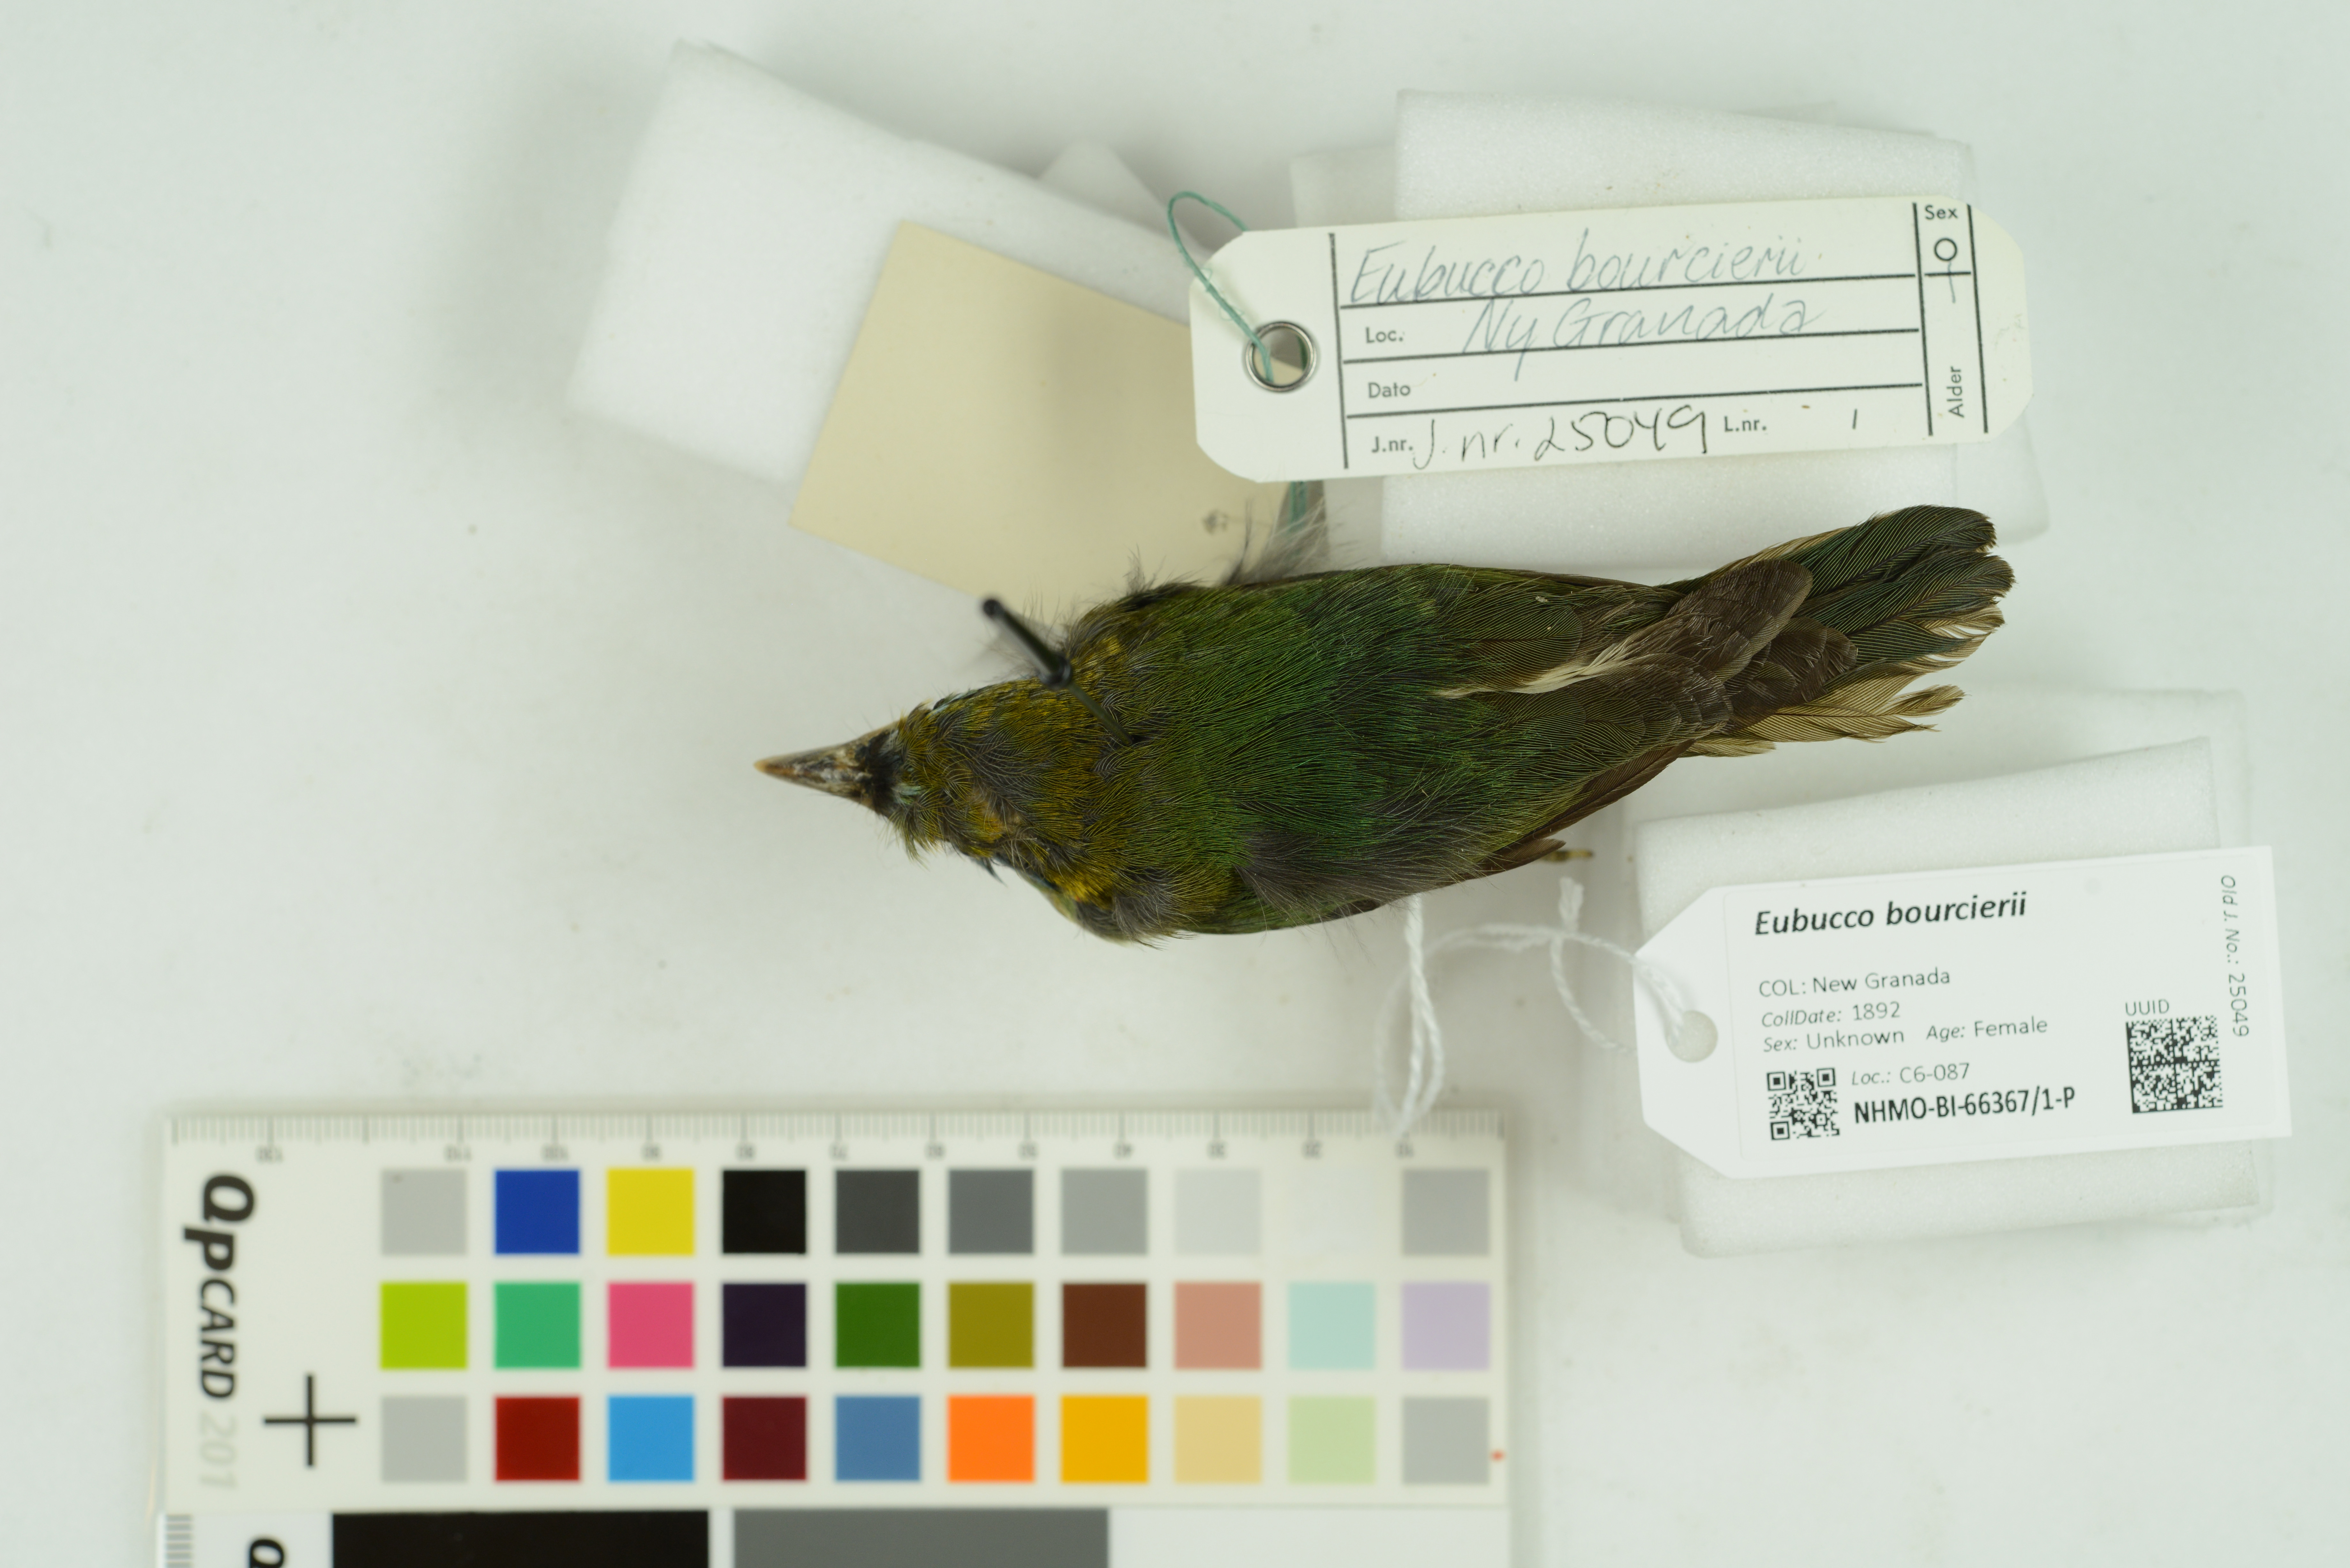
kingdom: Animalia
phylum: Chordata
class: Aves
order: Piciformes
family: Capitonidae
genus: Eubucco
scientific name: Eubucco bourcierii
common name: Red-headed barbet
